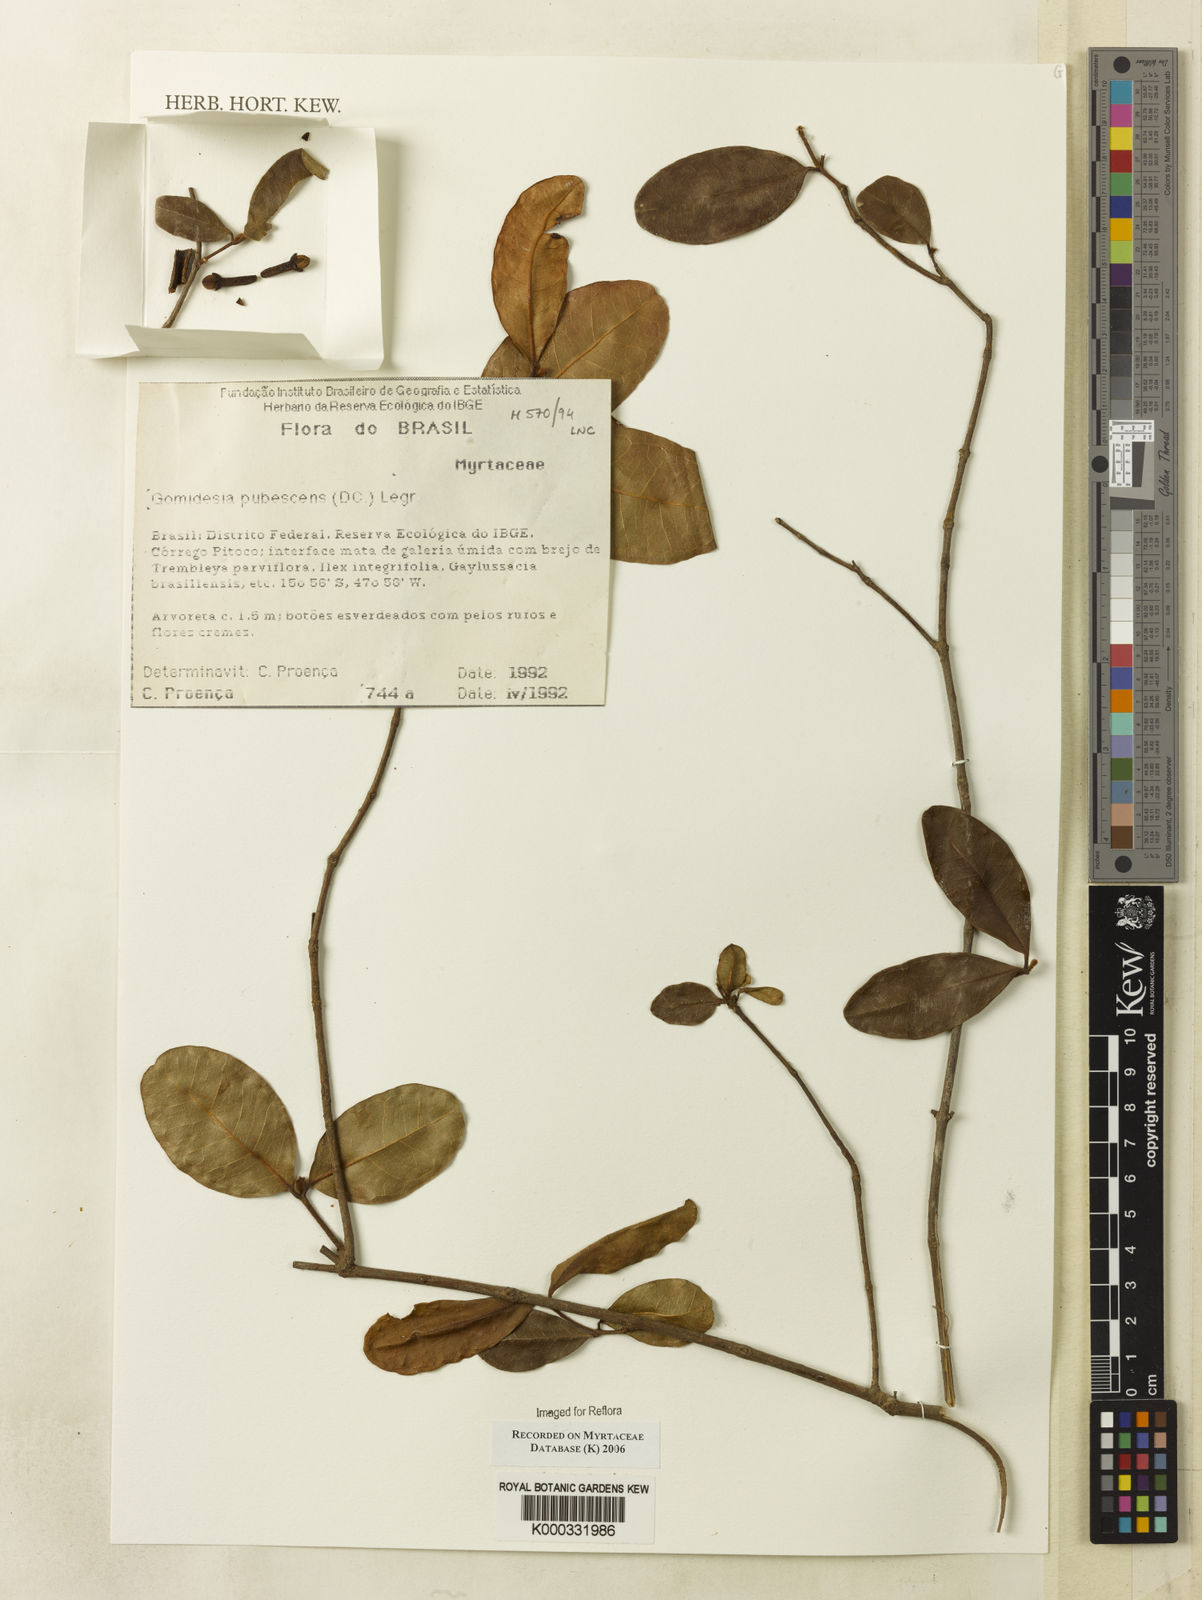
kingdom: Plantae
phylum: Tracheophyta
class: Magnoliopsida
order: Myrtales
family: Myrtaceae
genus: Myrcia
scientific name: Myrcia pubescens
